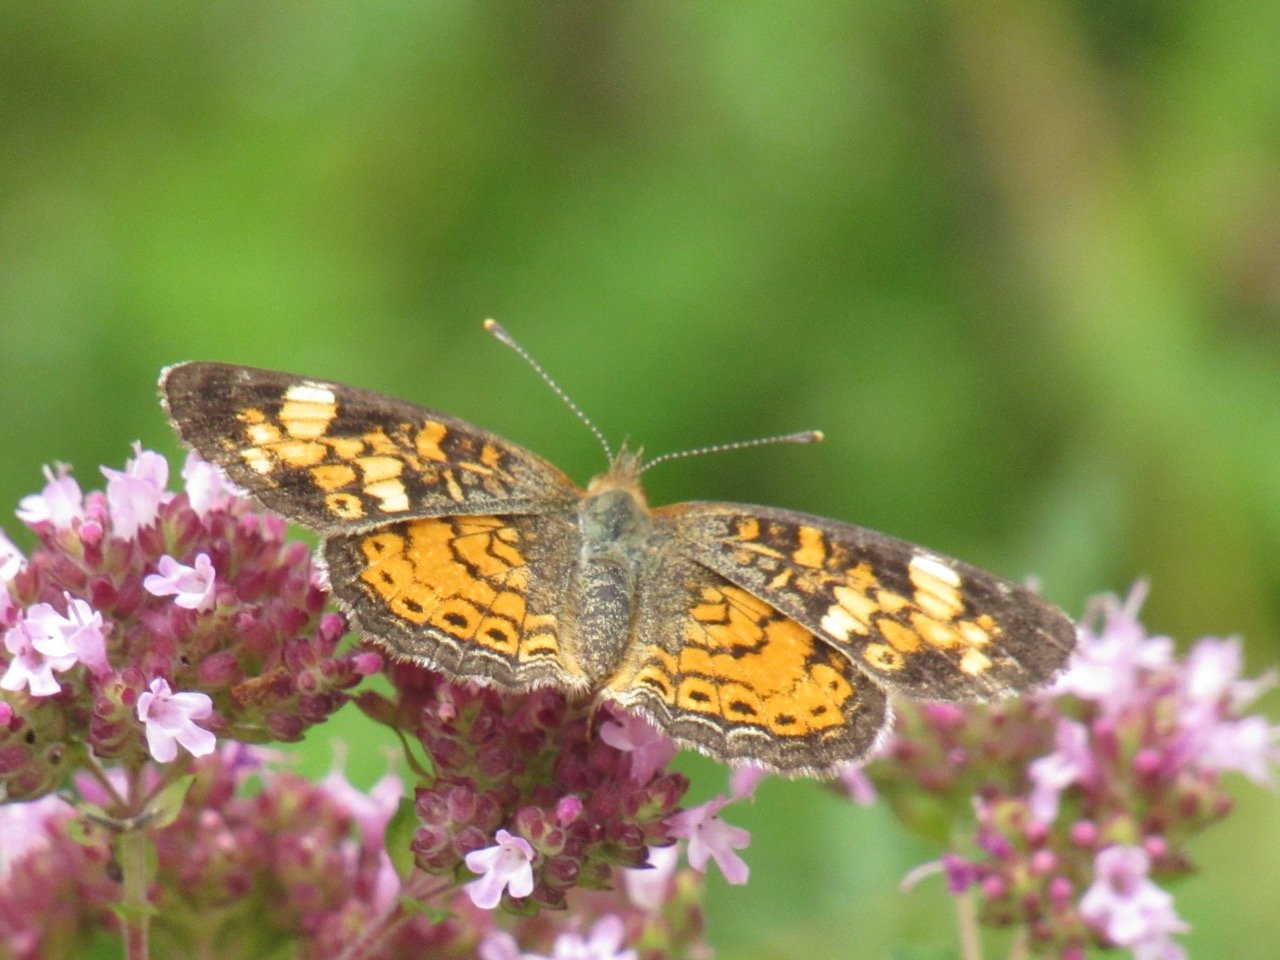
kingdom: Animalia
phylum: Arthropoda
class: Insecta
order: Lepidoptera
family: Nymphalidae
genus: Phyciodes
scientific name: Phyciodes tharos
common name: Pearl Crescent
